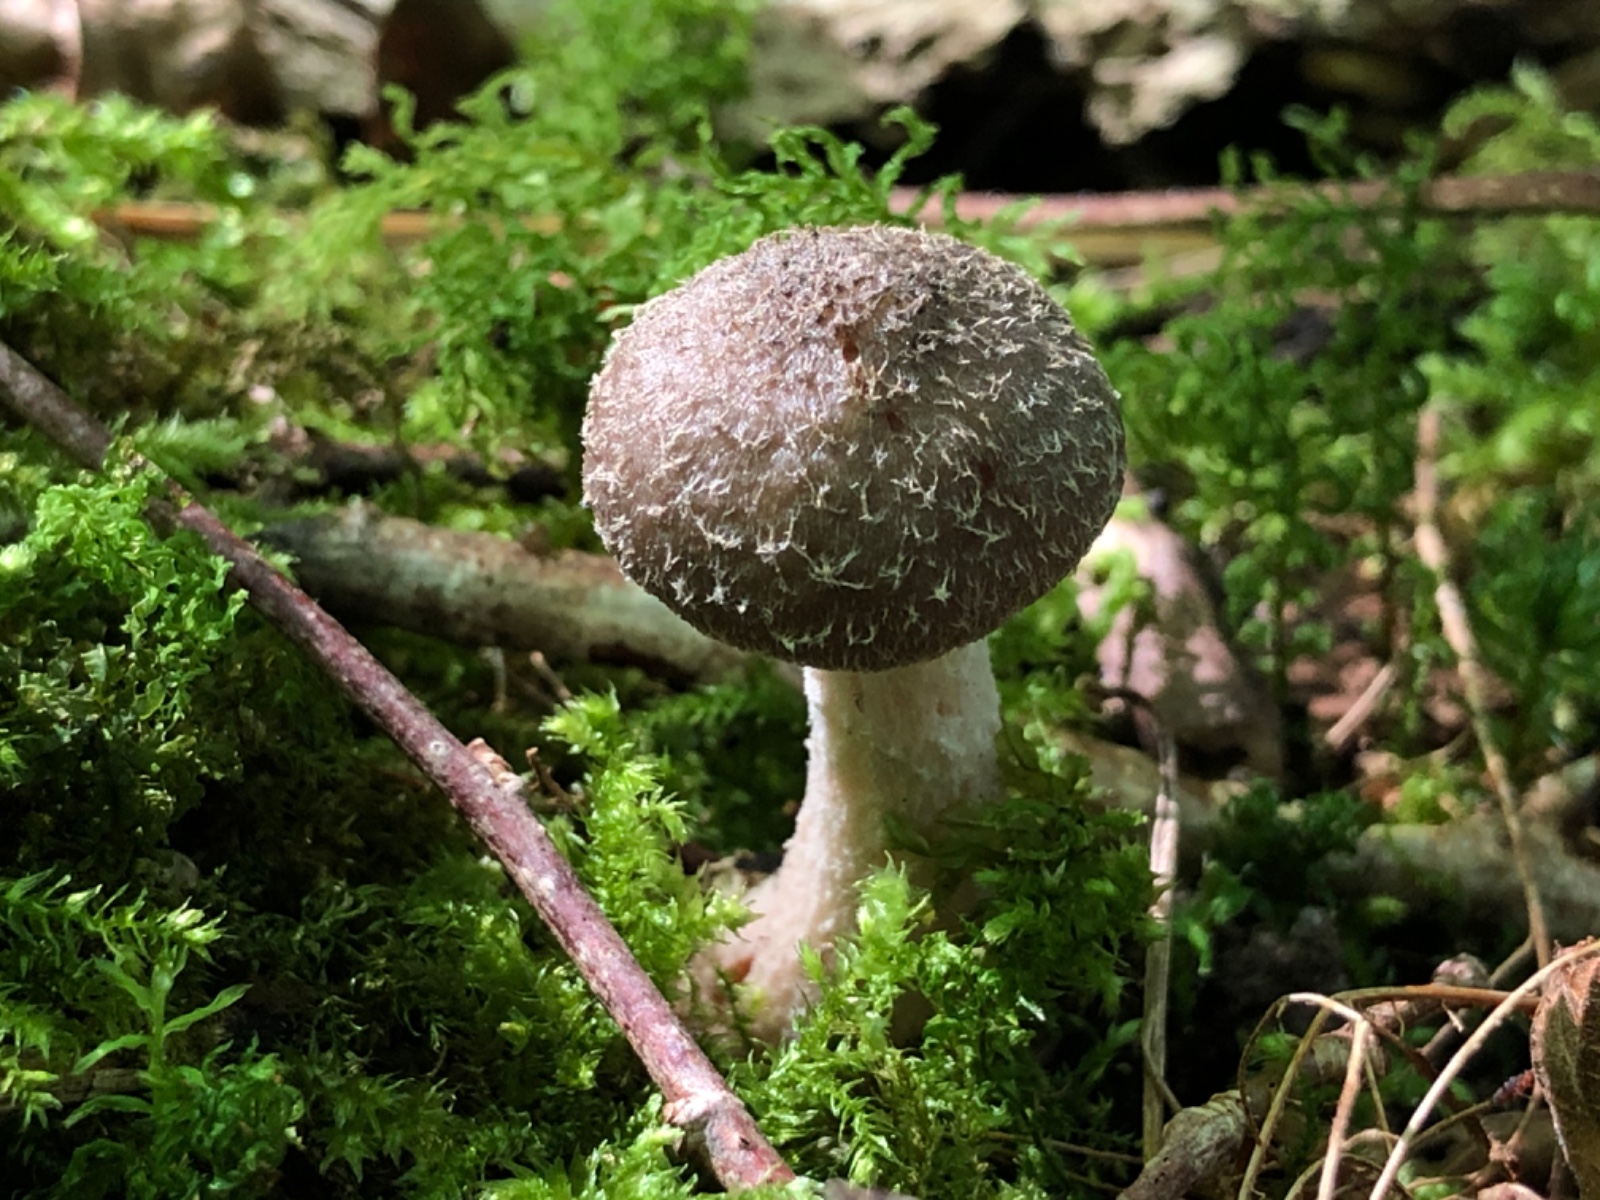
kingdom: Fungi
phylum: Basidiomycota
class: Agaricomycetes
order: Agaricales
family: Physalacriaceae
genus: Armillaria
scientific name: Armillaria
